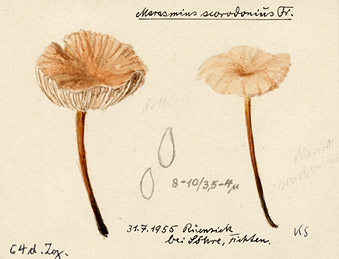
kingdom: Fungi
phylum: Basidiomycota
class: Agaricomycetes
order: Agaricales
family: Omphalotaceae
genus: Mycetinis
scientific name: Mycetinis scorodonius
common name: Vampires bane
